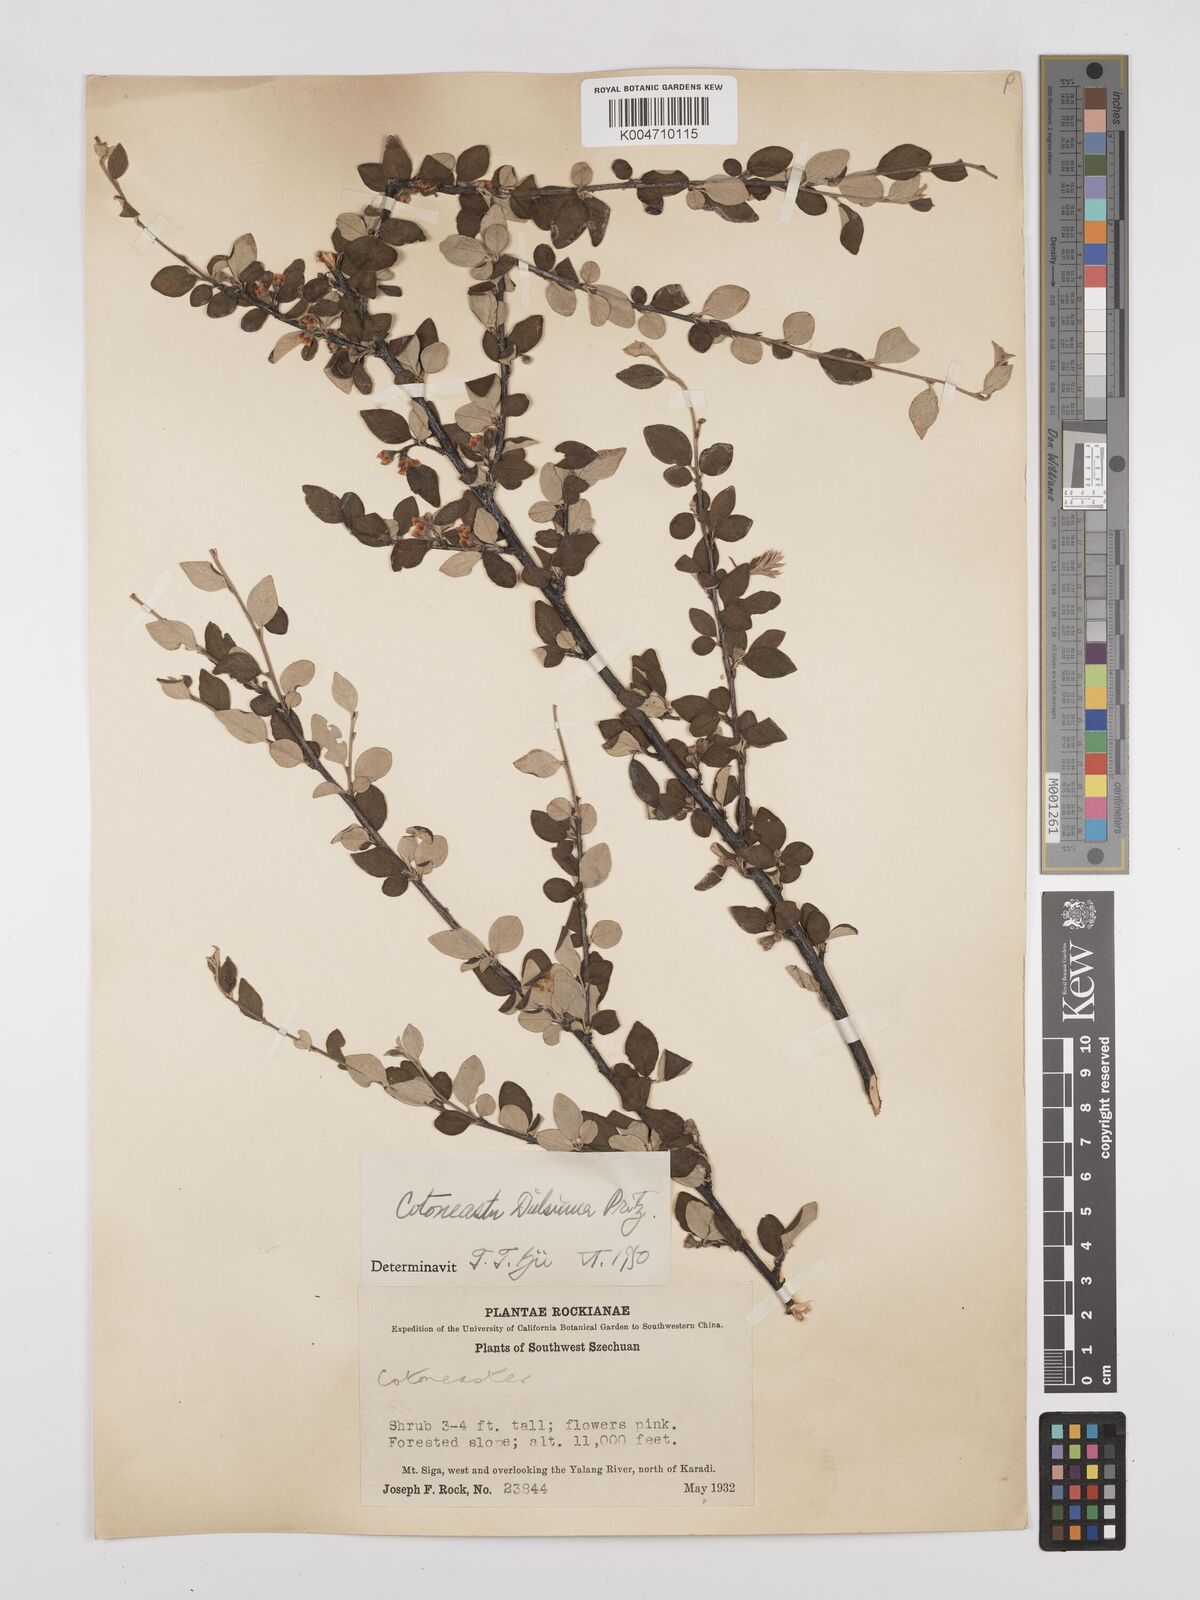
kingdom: Plantae
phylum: Tracheophyta
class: Magnoliopsida
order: Rosales
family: Rosaceae
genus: Cotoneaster
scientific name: Cotoneaster dielsianus
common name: Diels's cotoneaster
